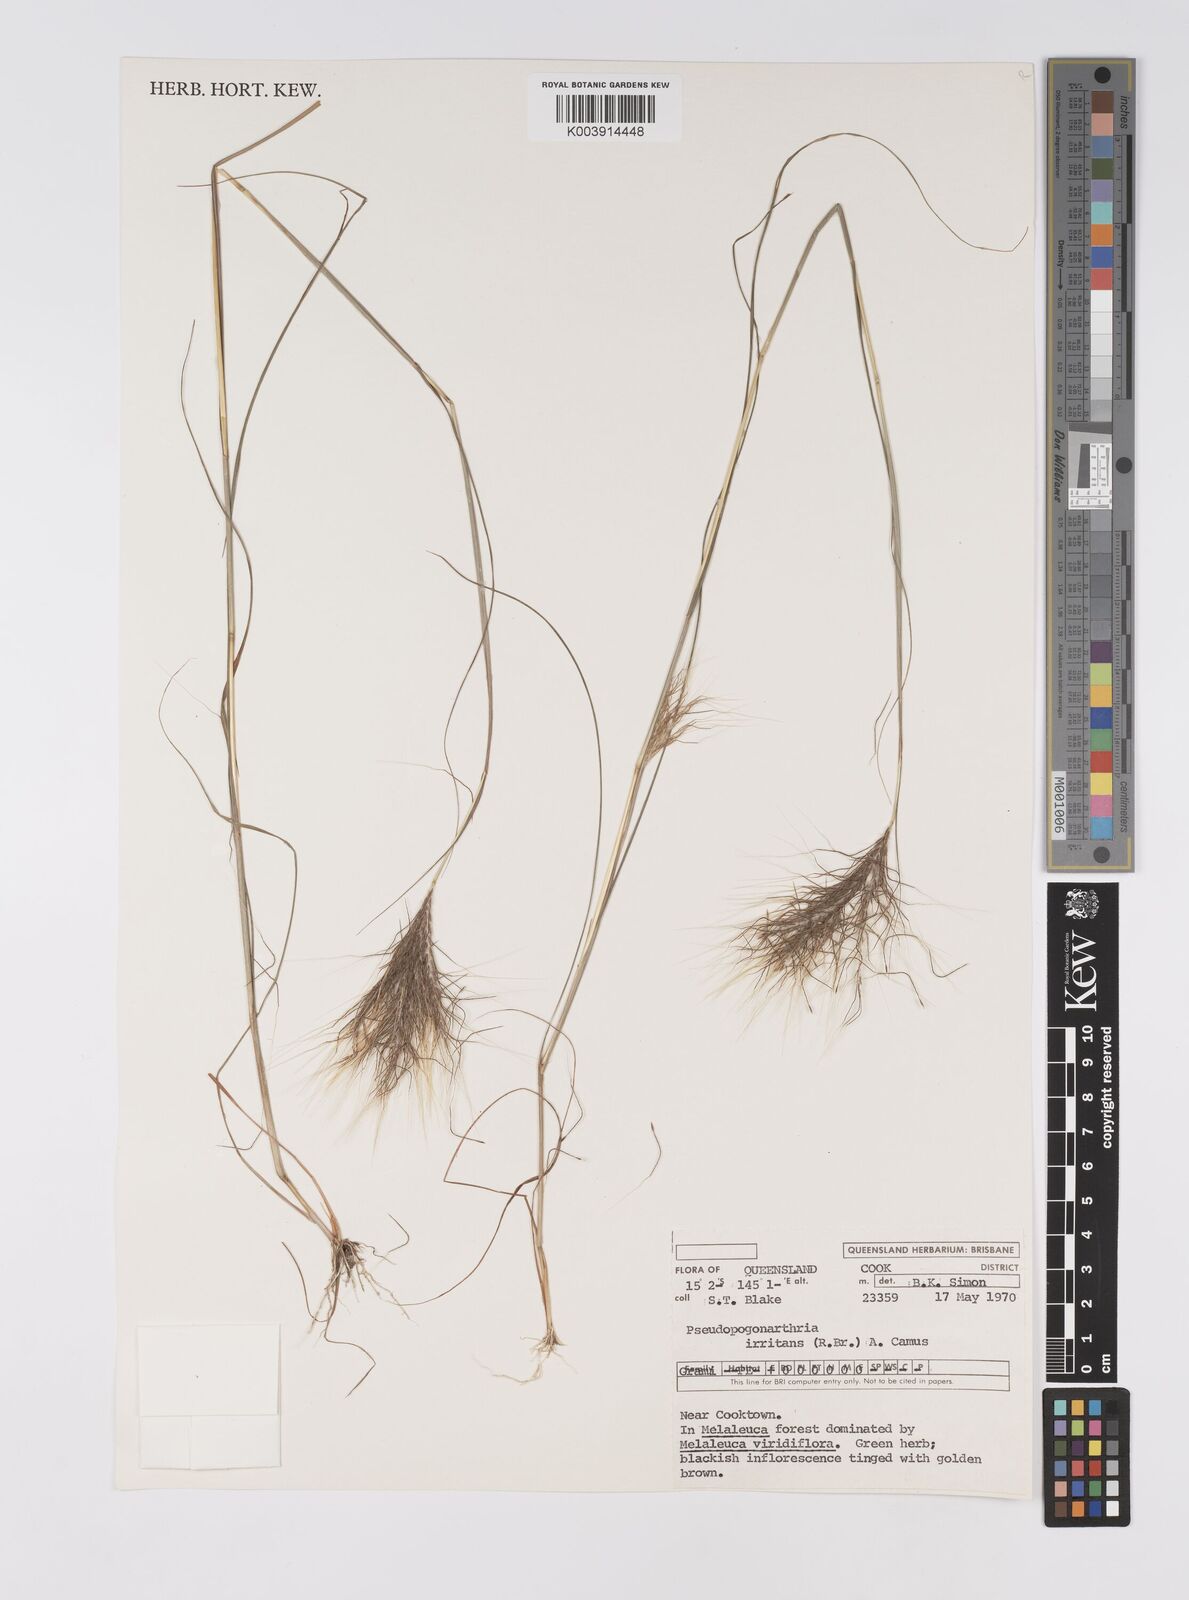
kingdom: Plantae
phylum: Tracheophyta
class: Liliopsida
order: Poales
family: Poaceae
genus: Pseudopogonatherum
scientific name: Pseudopogonatherum irritans
